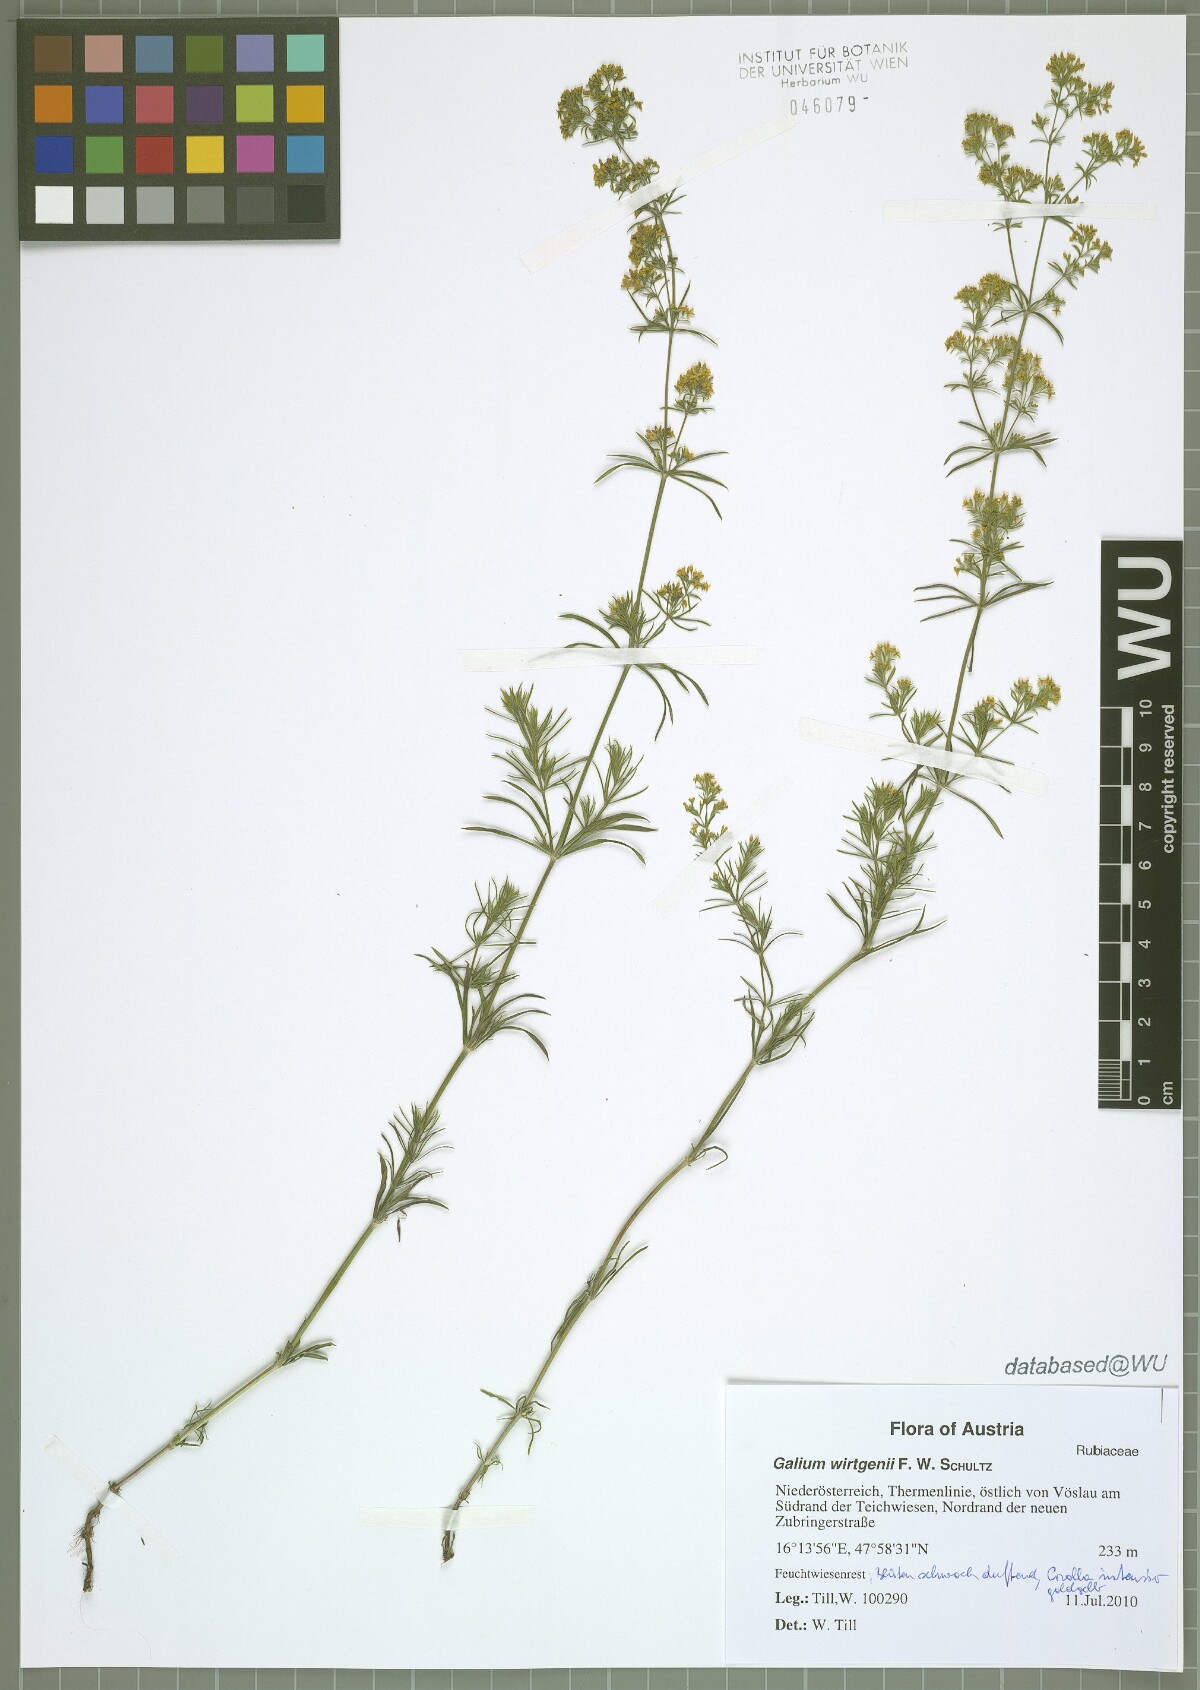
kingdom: Plantae
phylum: Tracheophyta
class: Magnoliopsida
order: Gentianales
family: Rubiaceae
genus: Galium
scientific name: Galium verum
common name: Lady's bedstraw
